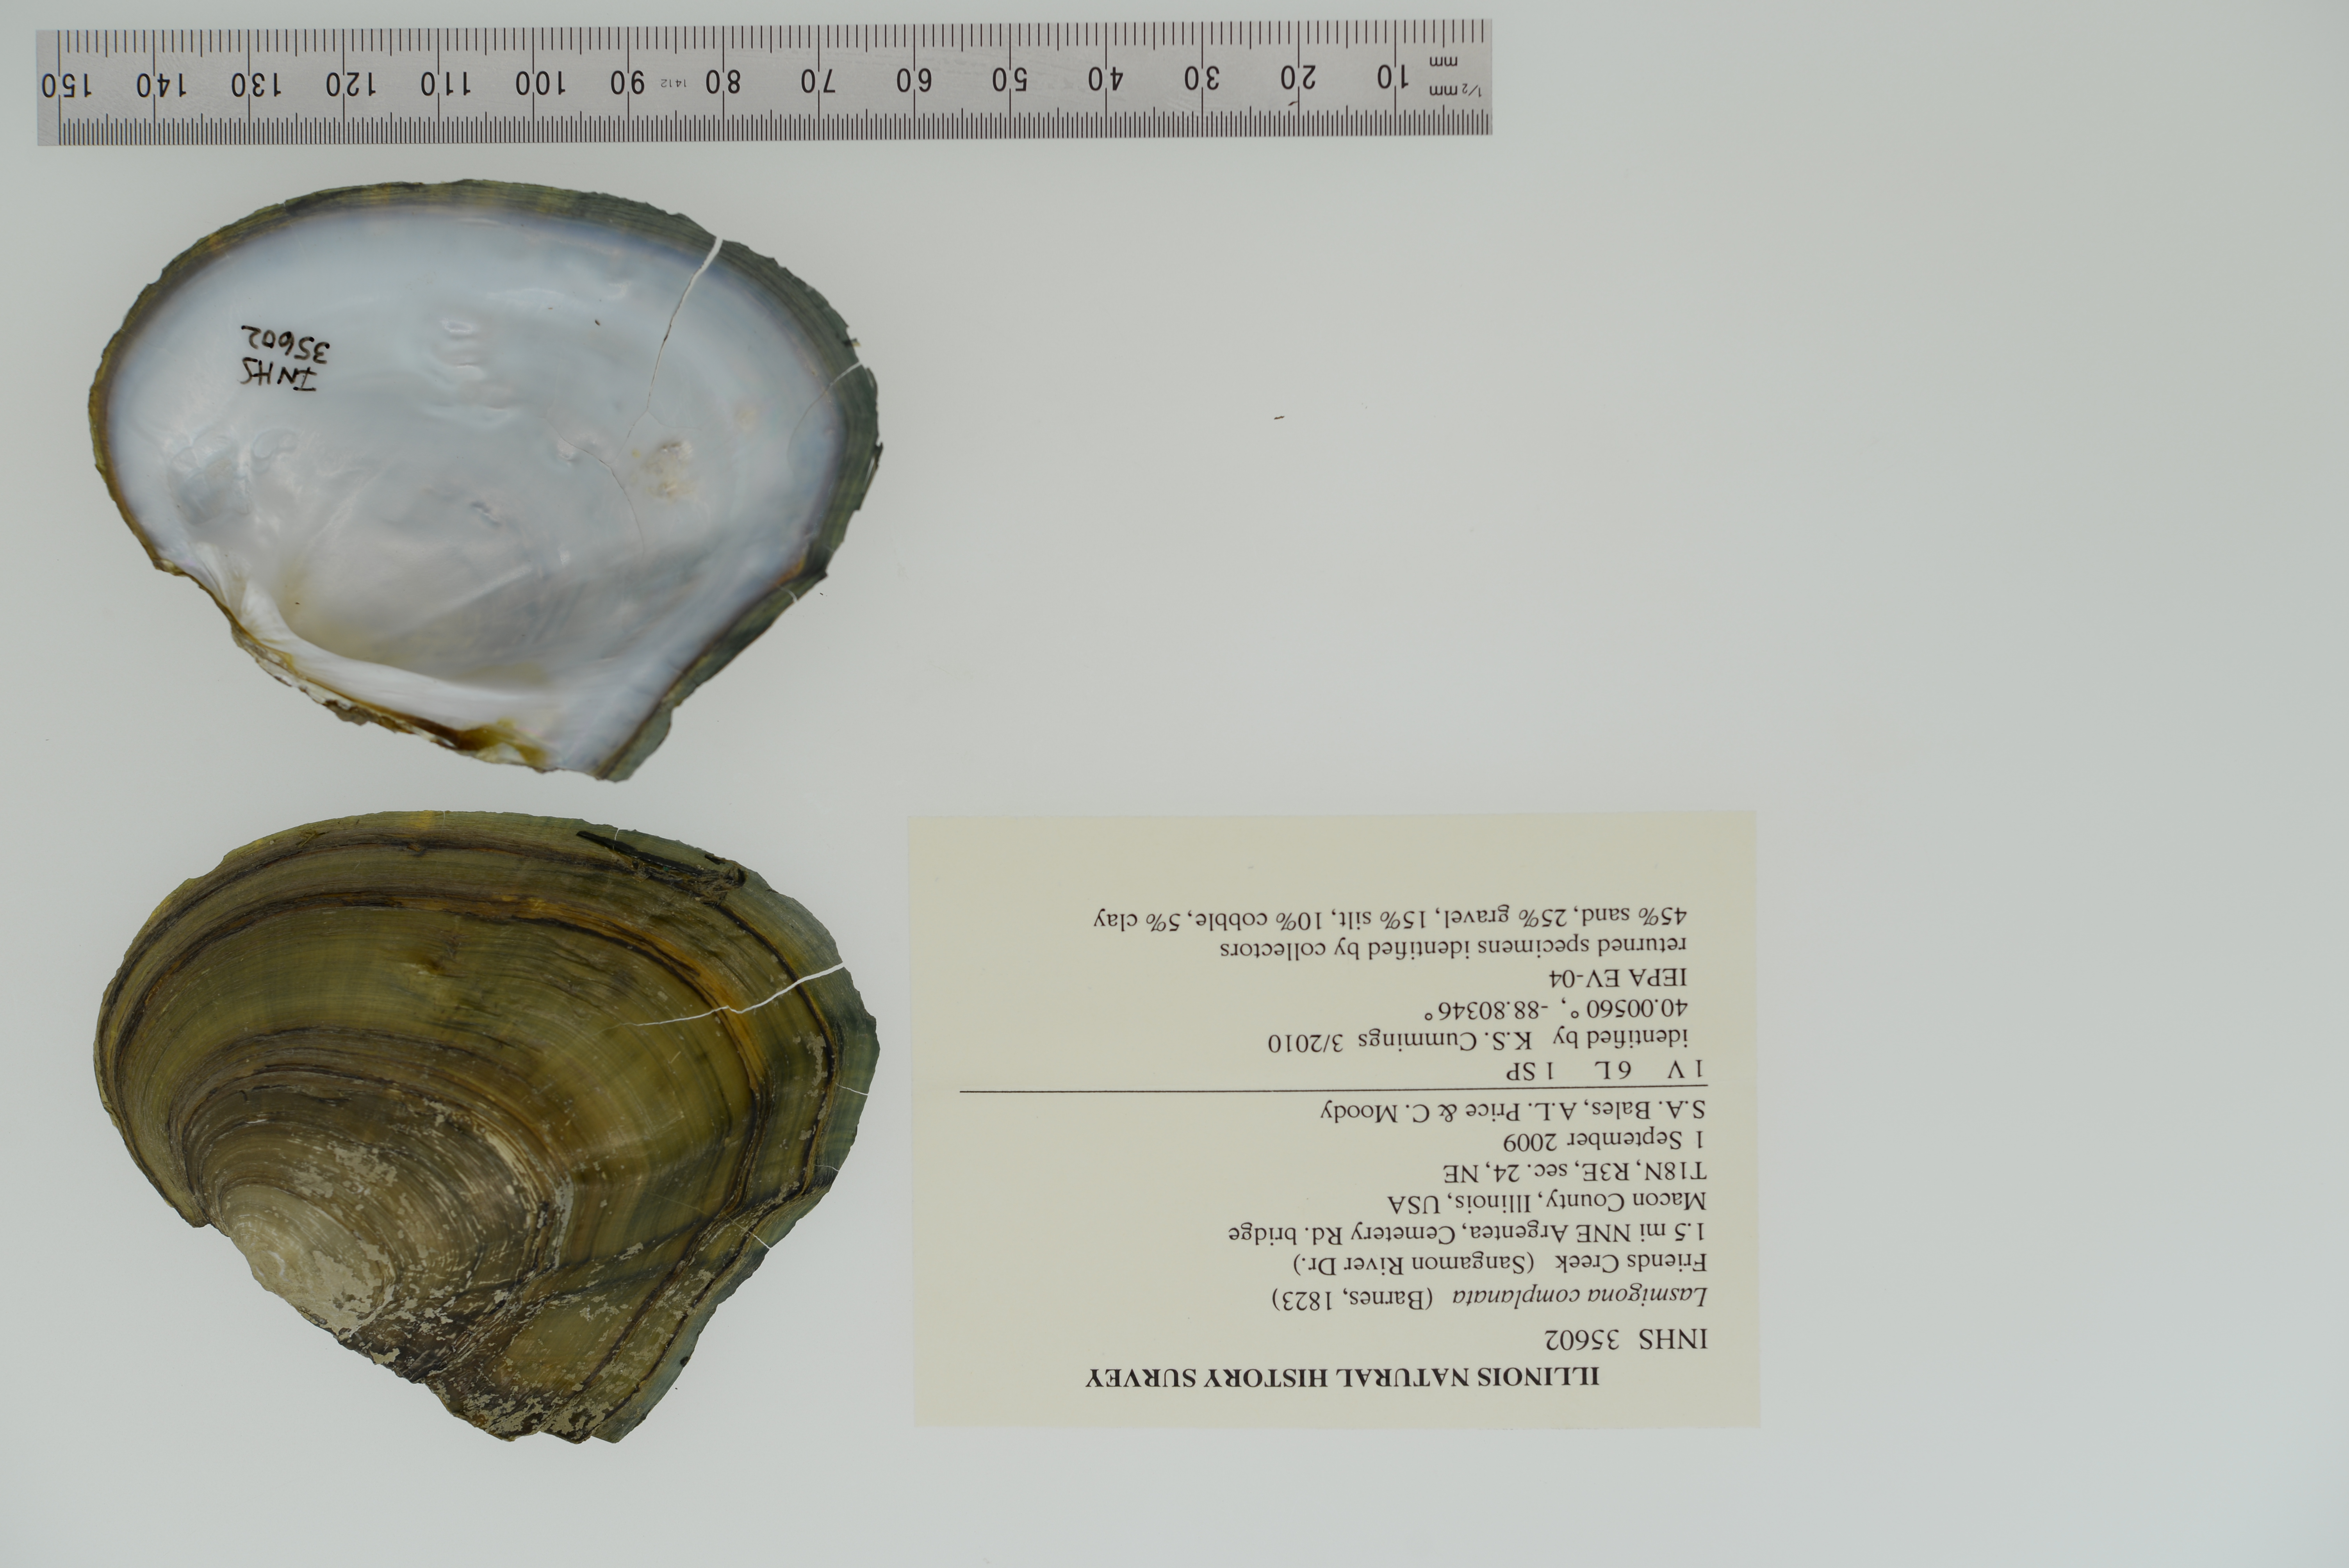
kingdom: Animalia
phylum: Mollusca
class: Bivalvia
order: Unionida
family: Unionidae
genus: Lasmigona
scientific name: Lasmigona complanata
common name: White heelsplitter
